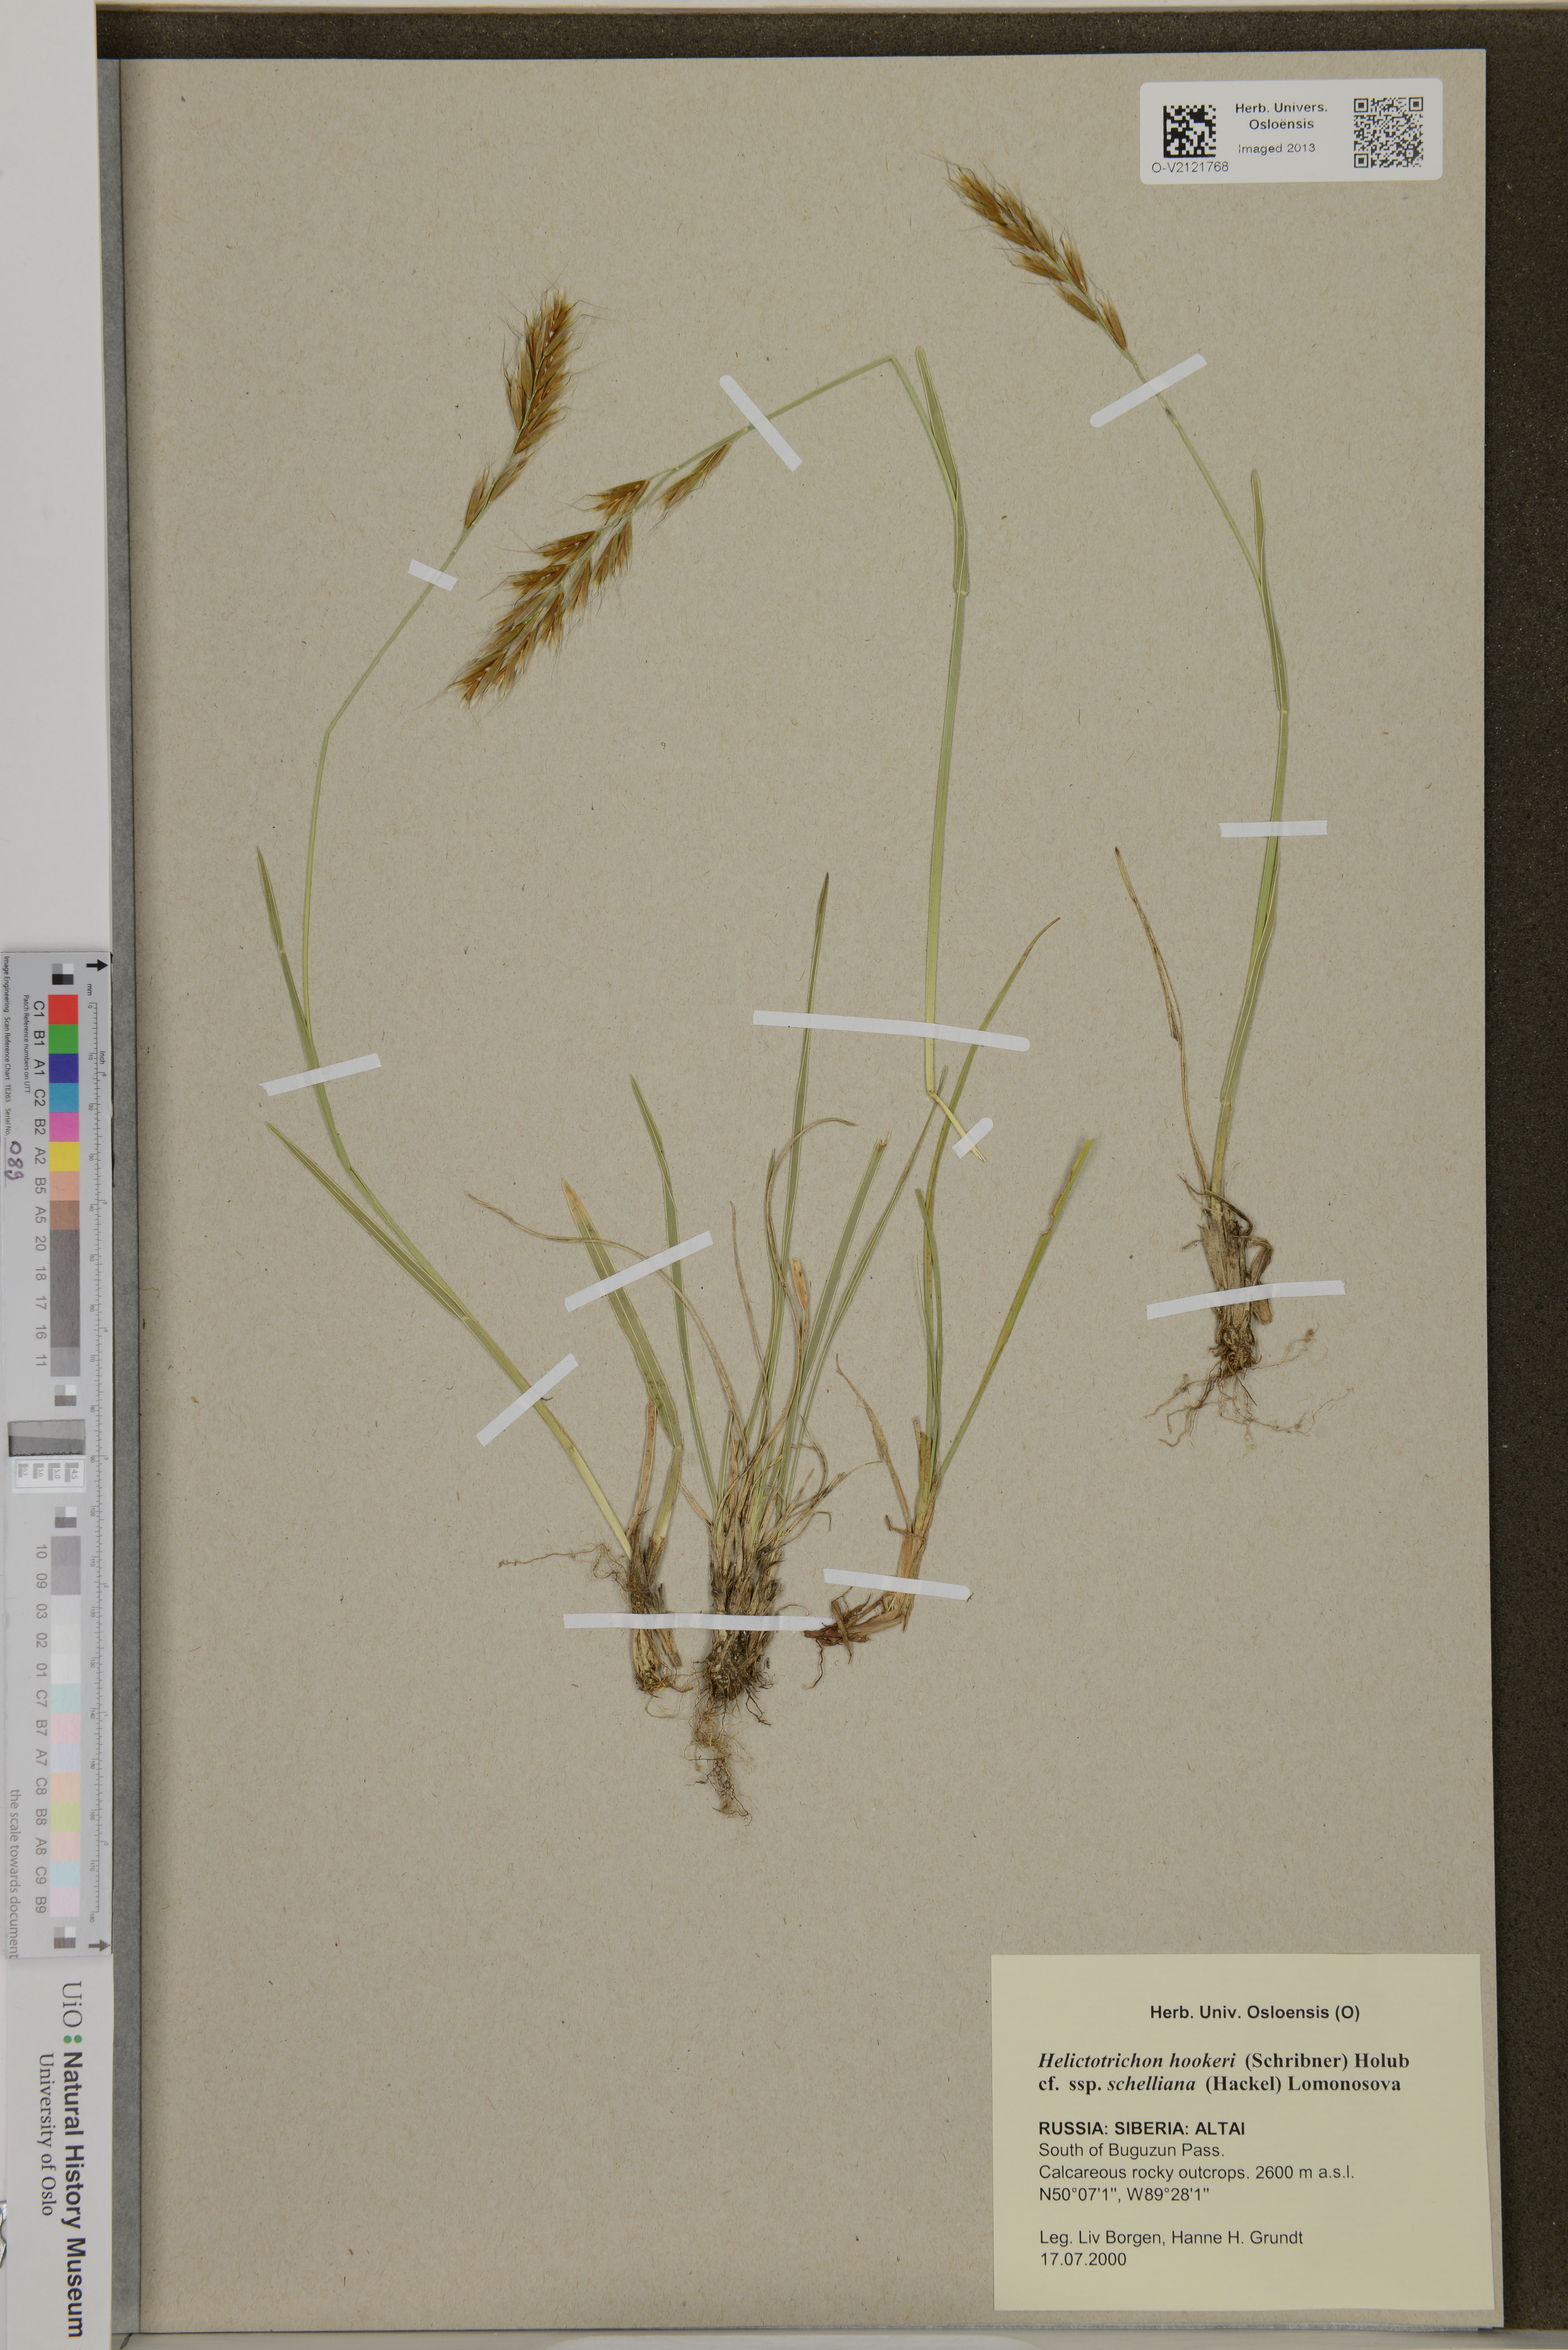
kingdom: Plantae
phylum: Tracheophyta
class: Liliopsida
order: Poales
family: Poaceae
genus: Helictochloa
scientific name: Helictochloa hookeri
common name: Hooker's alpine oatgrass
